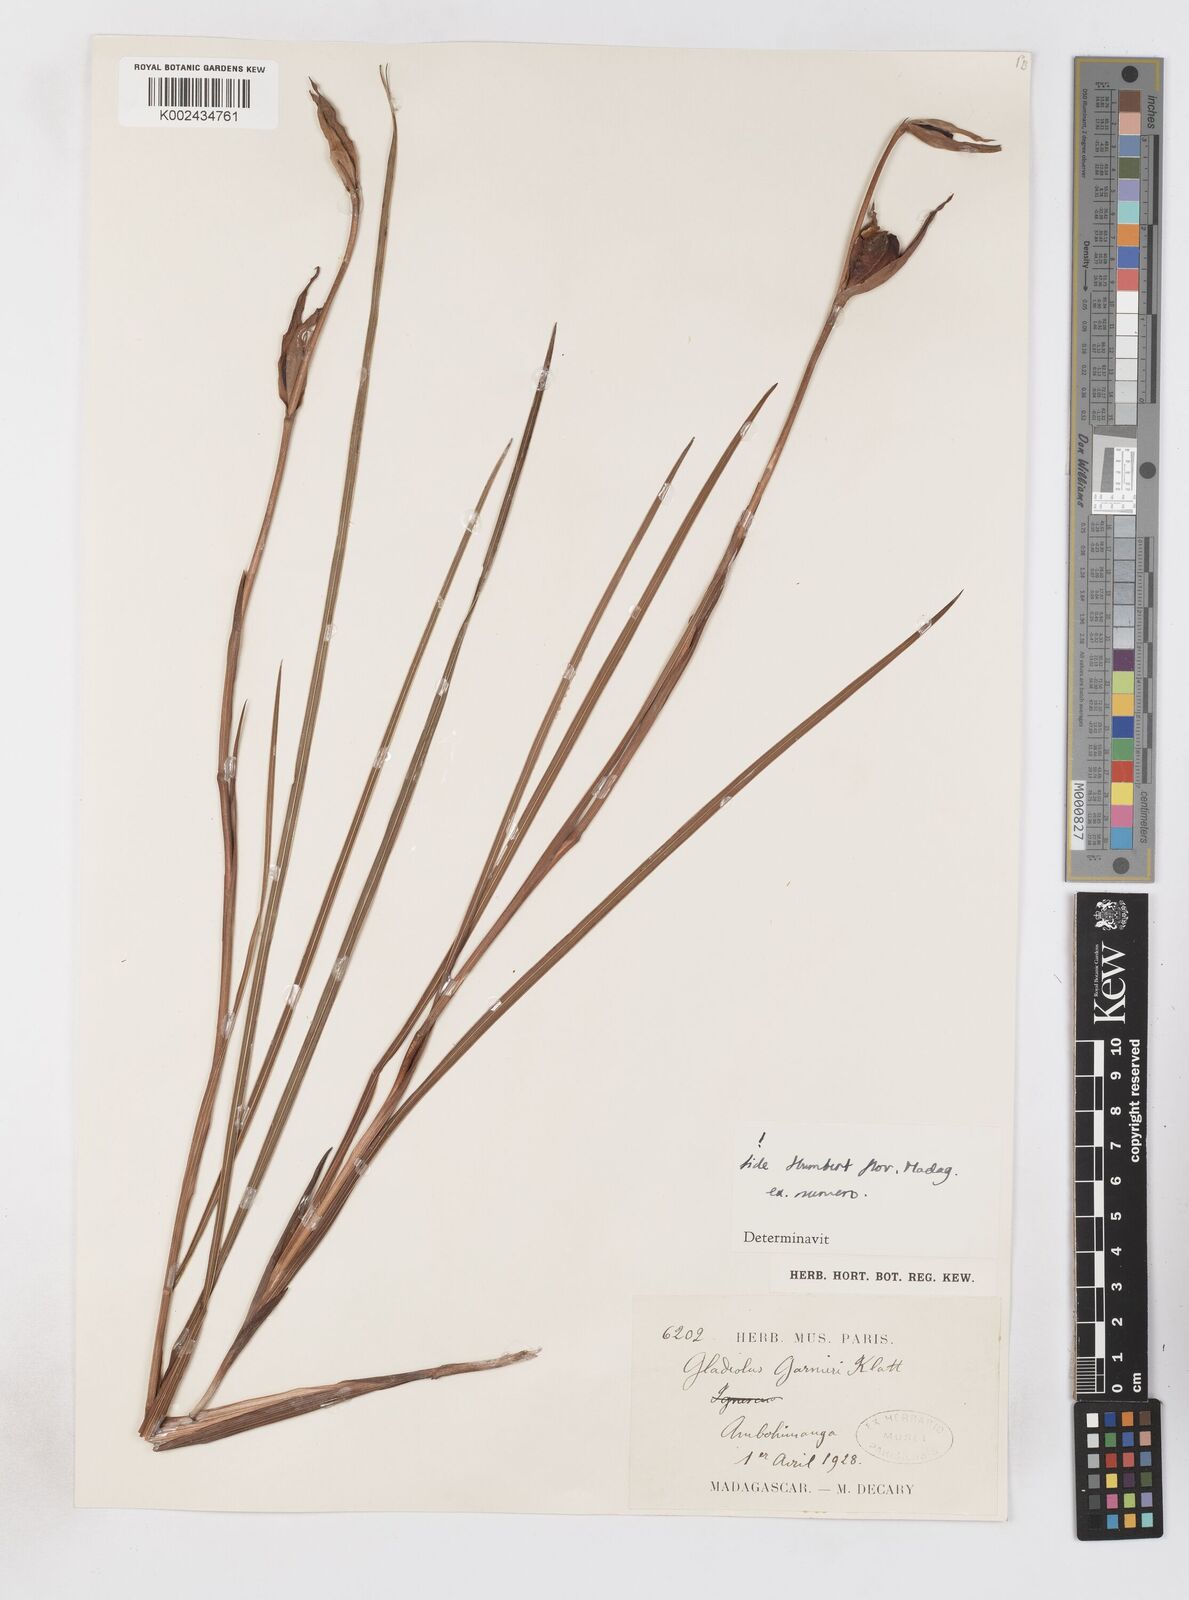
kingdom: Plantae
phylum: Tracheophyta
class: Liliopsida
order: Asparagales
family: Iridaceae
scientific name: Iridaceae
